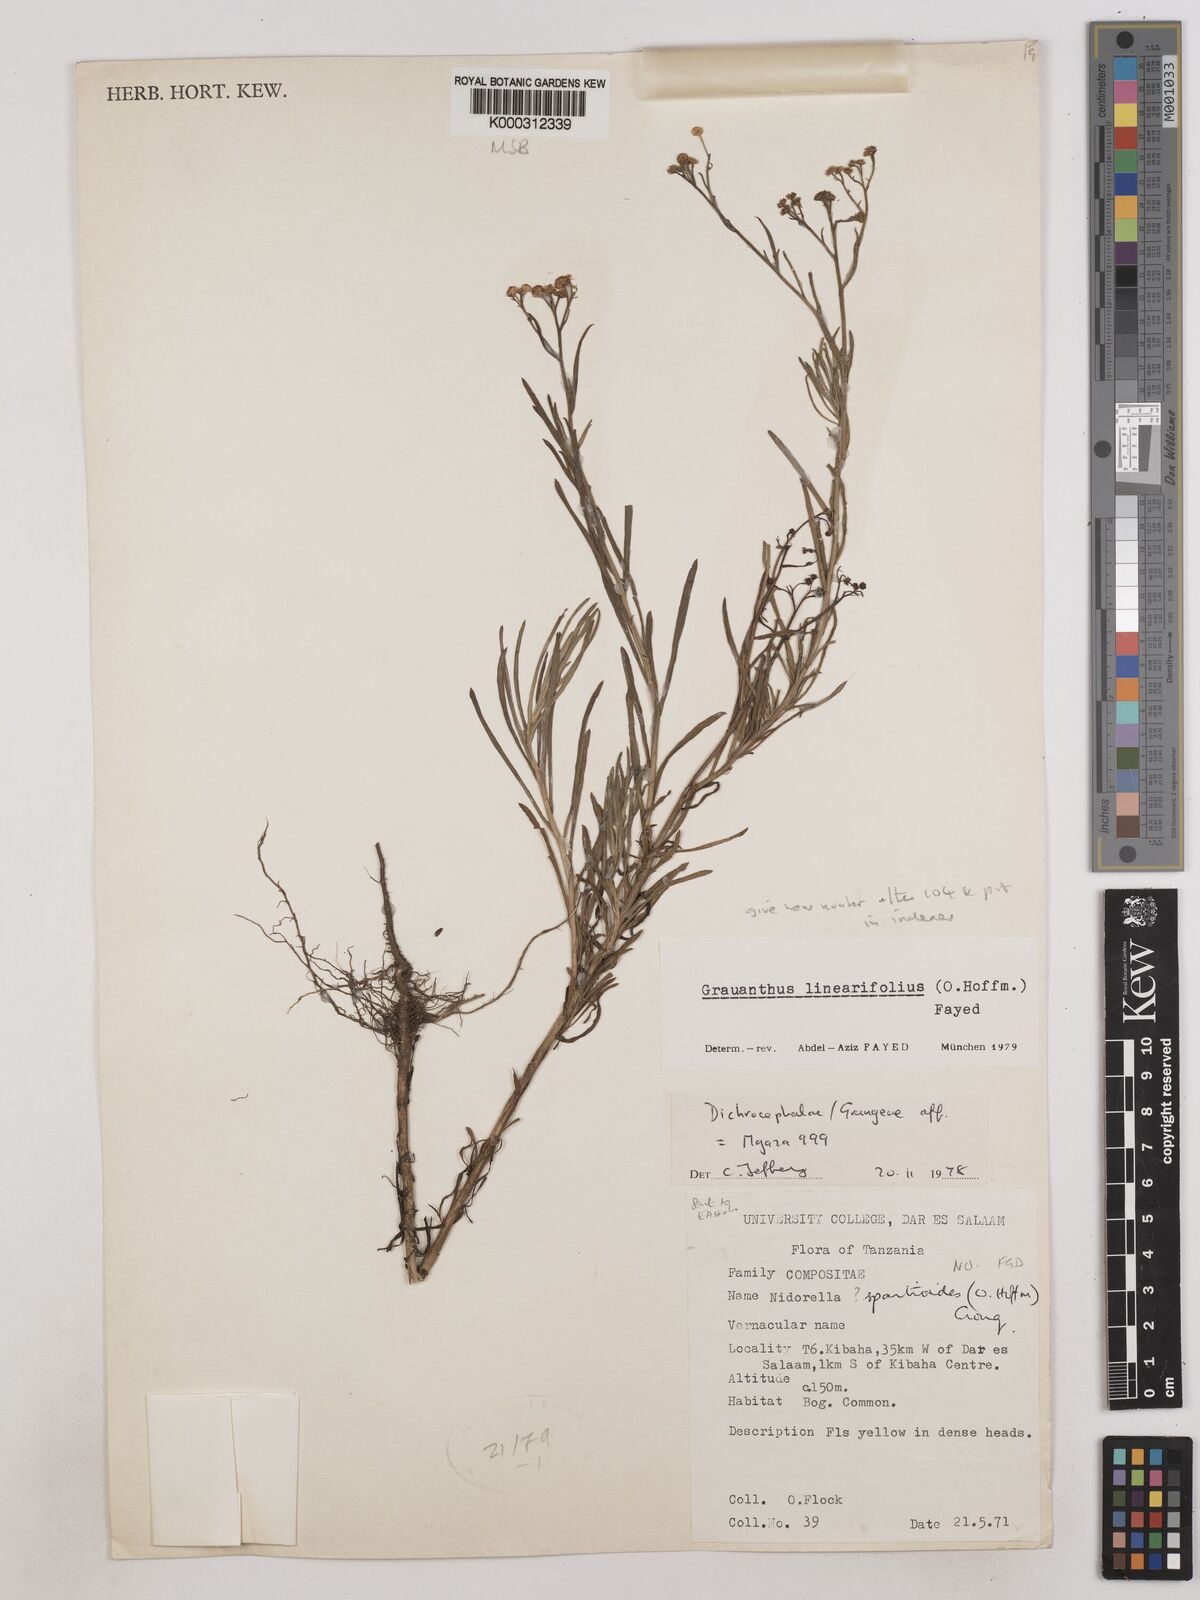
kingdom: Plantae
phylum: Tracheophyta
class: Magnoliopsida
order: Asterales
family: Asteraceae
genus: Grauanthus
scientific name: Grauanthus linearifolius
